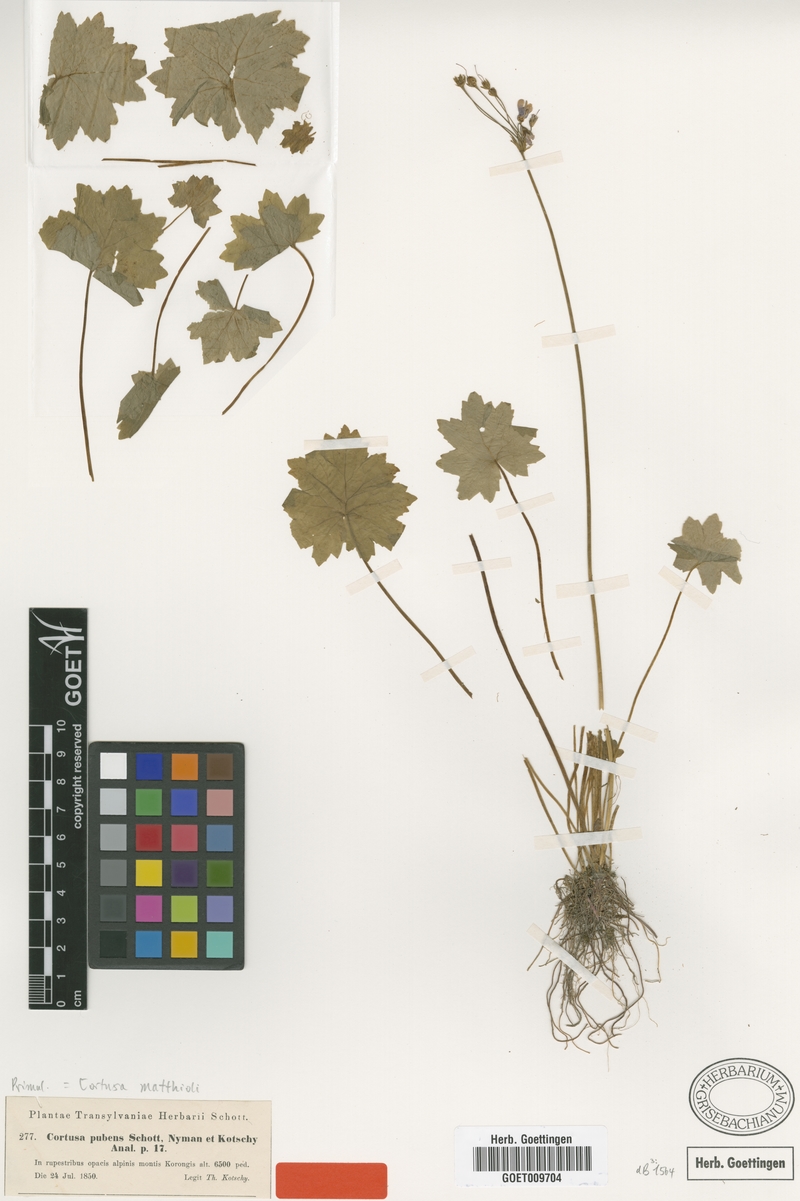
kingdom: Plantae
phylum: Tracheophyta
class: Magnoliopsida
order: Ericales
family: Primulaceae
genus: Primula
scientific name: Primula matthioli
